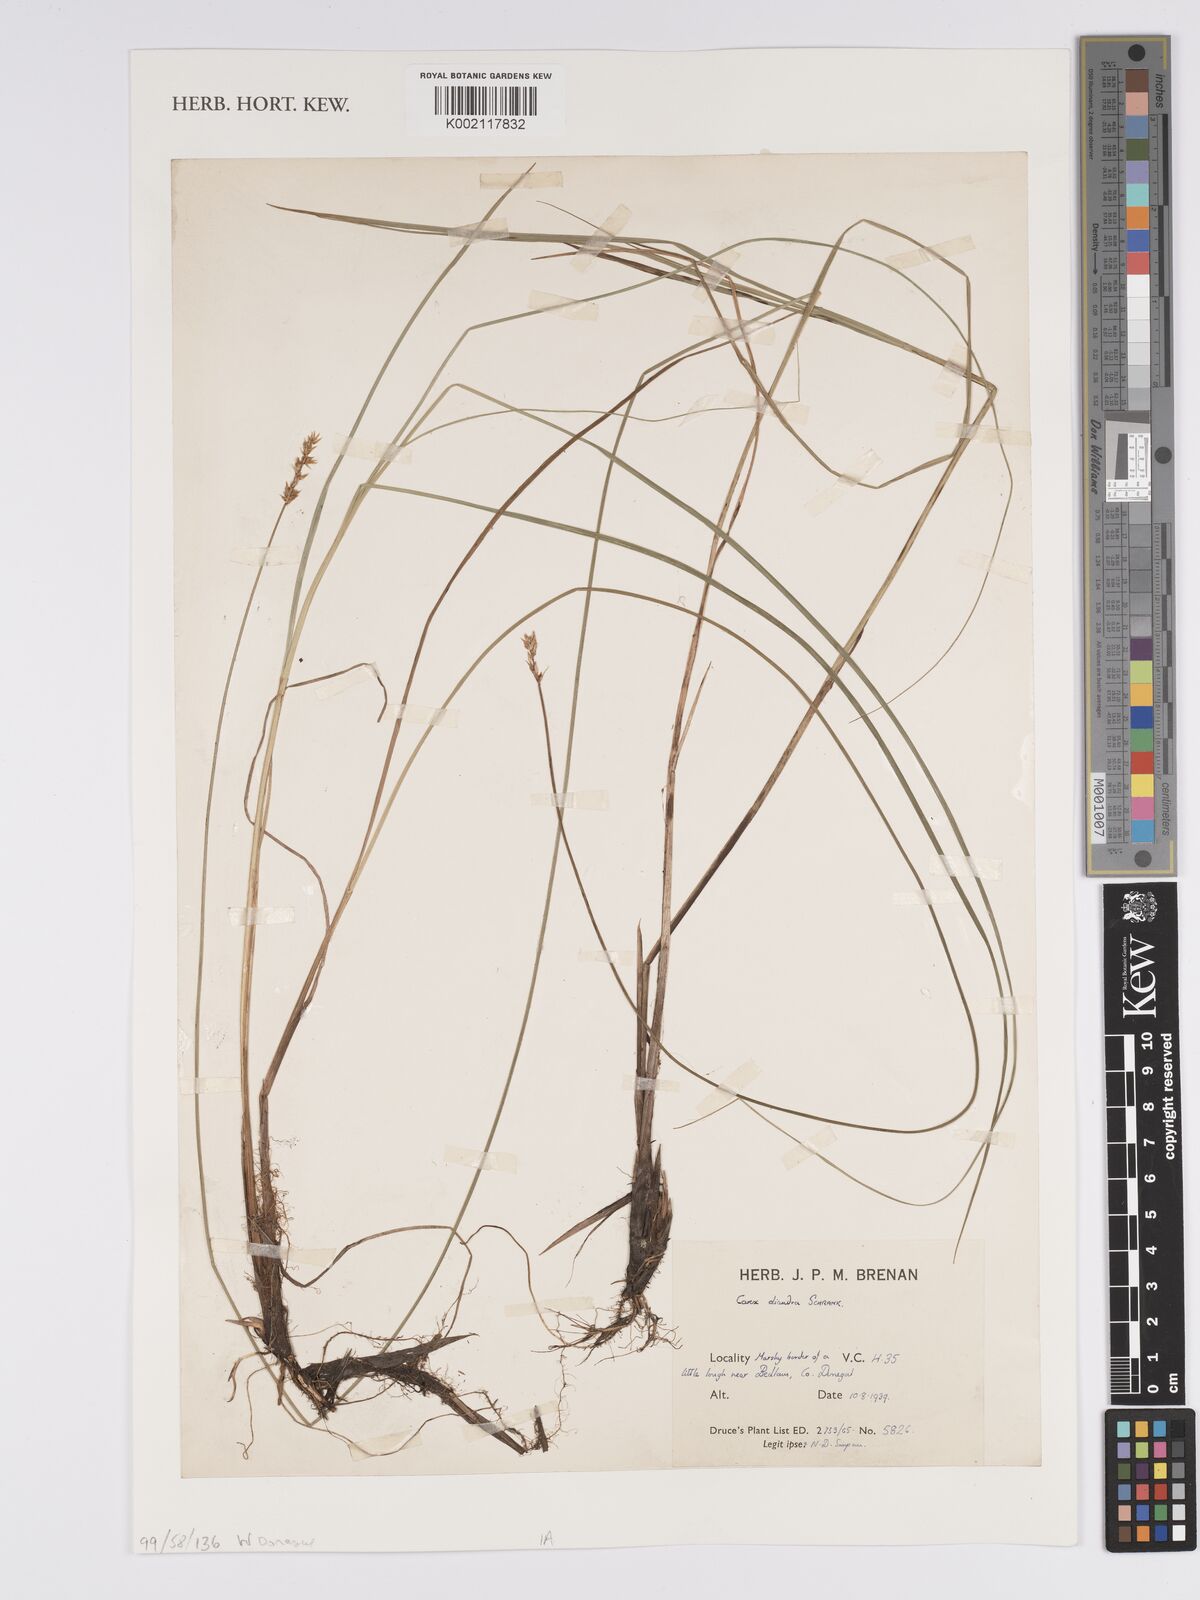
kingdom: Plantae
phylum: Tracheophyta
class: Liliopsida
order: Poales
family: Cyperaceae
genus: Carex
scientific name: Carex diandra
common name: Lesser tussock-sedge
